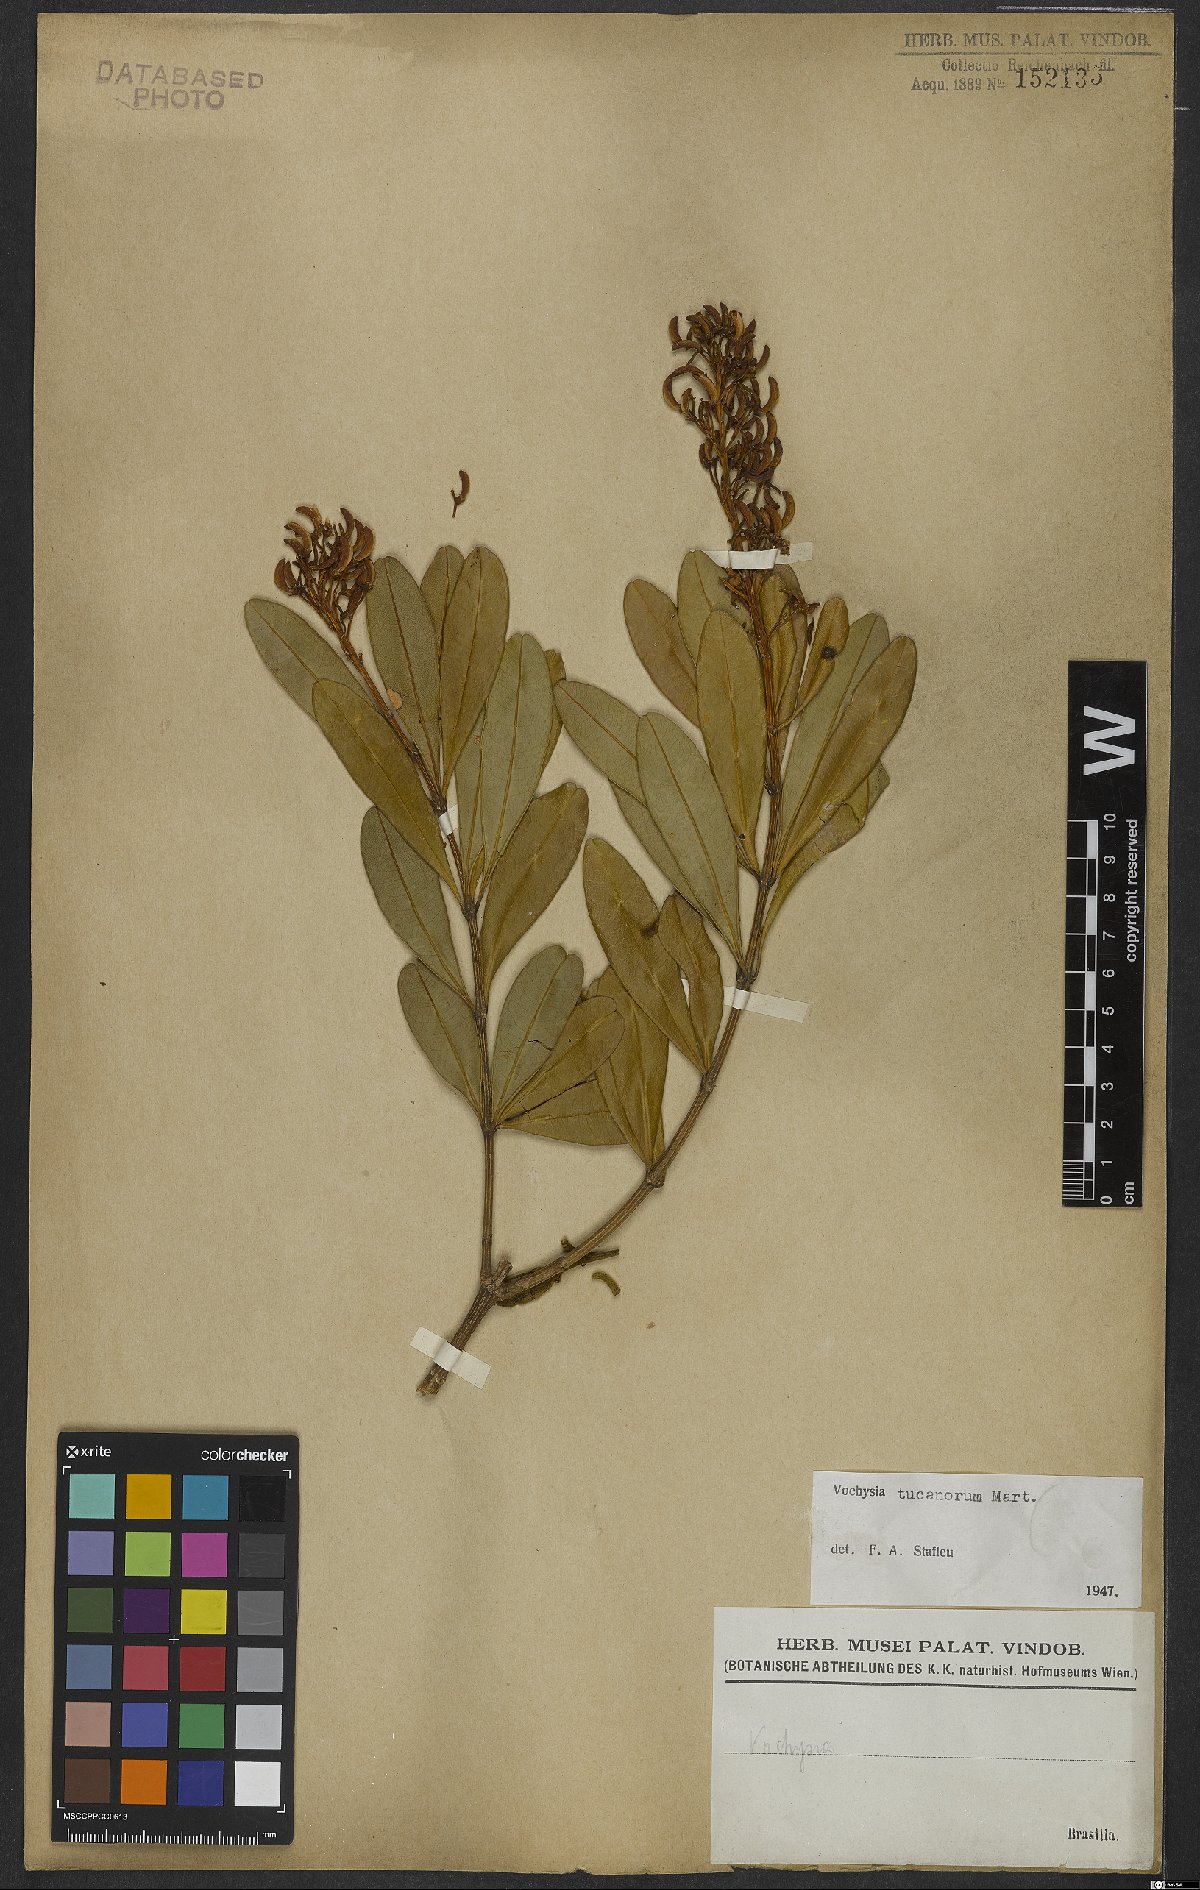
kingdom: Plantae
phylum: Tracheophyta
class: Magnoliopsida
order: Myrtales
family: Vochysiaceae
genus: Vochysia
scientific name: Vochysia tucanorum
